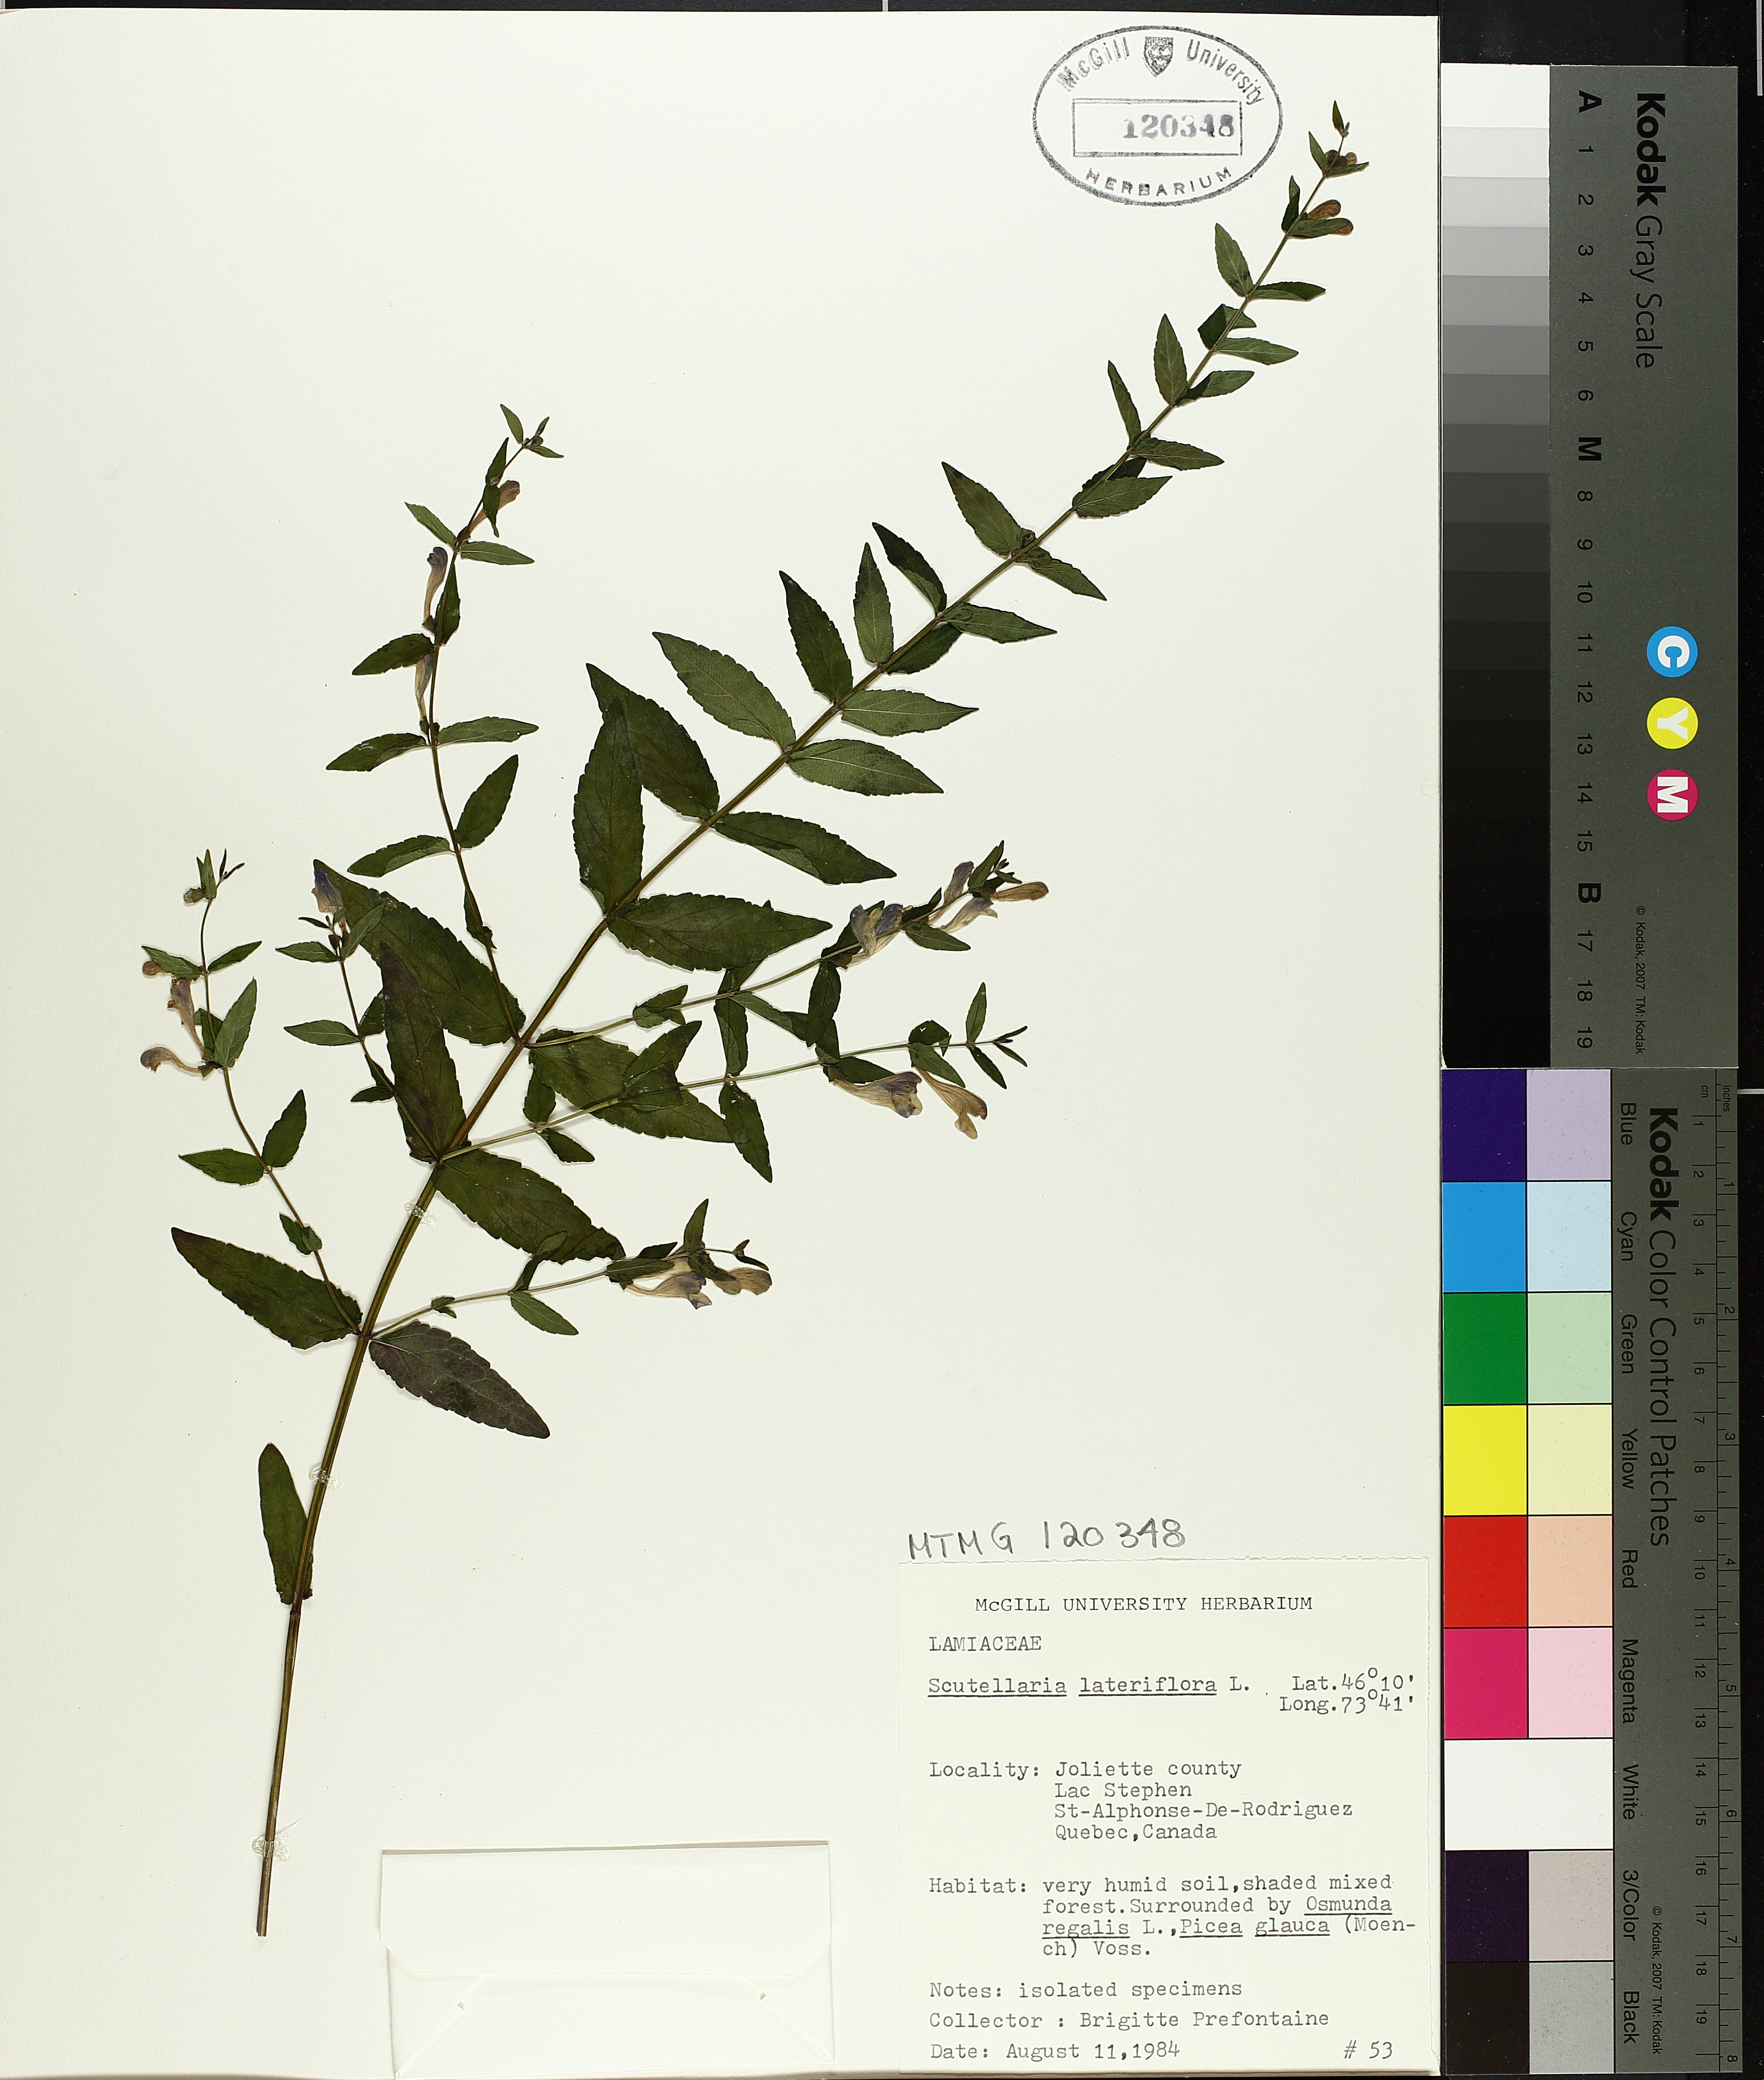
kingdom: Plantae
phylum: Tracheophyta
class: Magnoliopsida
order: Lamiales
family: Lamiaceae
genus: Scutellaria
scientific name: Scutellaria lateriflora
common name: Blue skullcap
